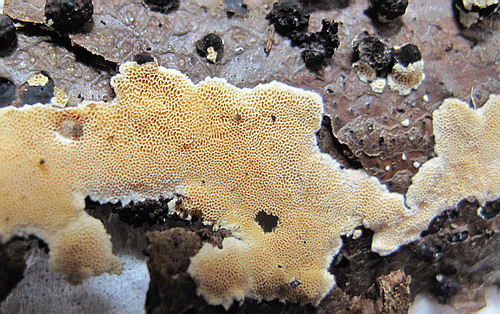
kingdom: Fungi
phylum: Basidiomycota
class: Agaricomycetes
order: Polyporales
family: Steccherinaceae
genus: Junghuhnia
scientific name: Junghuhnia nitida
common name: almindelig skønporesvamp
